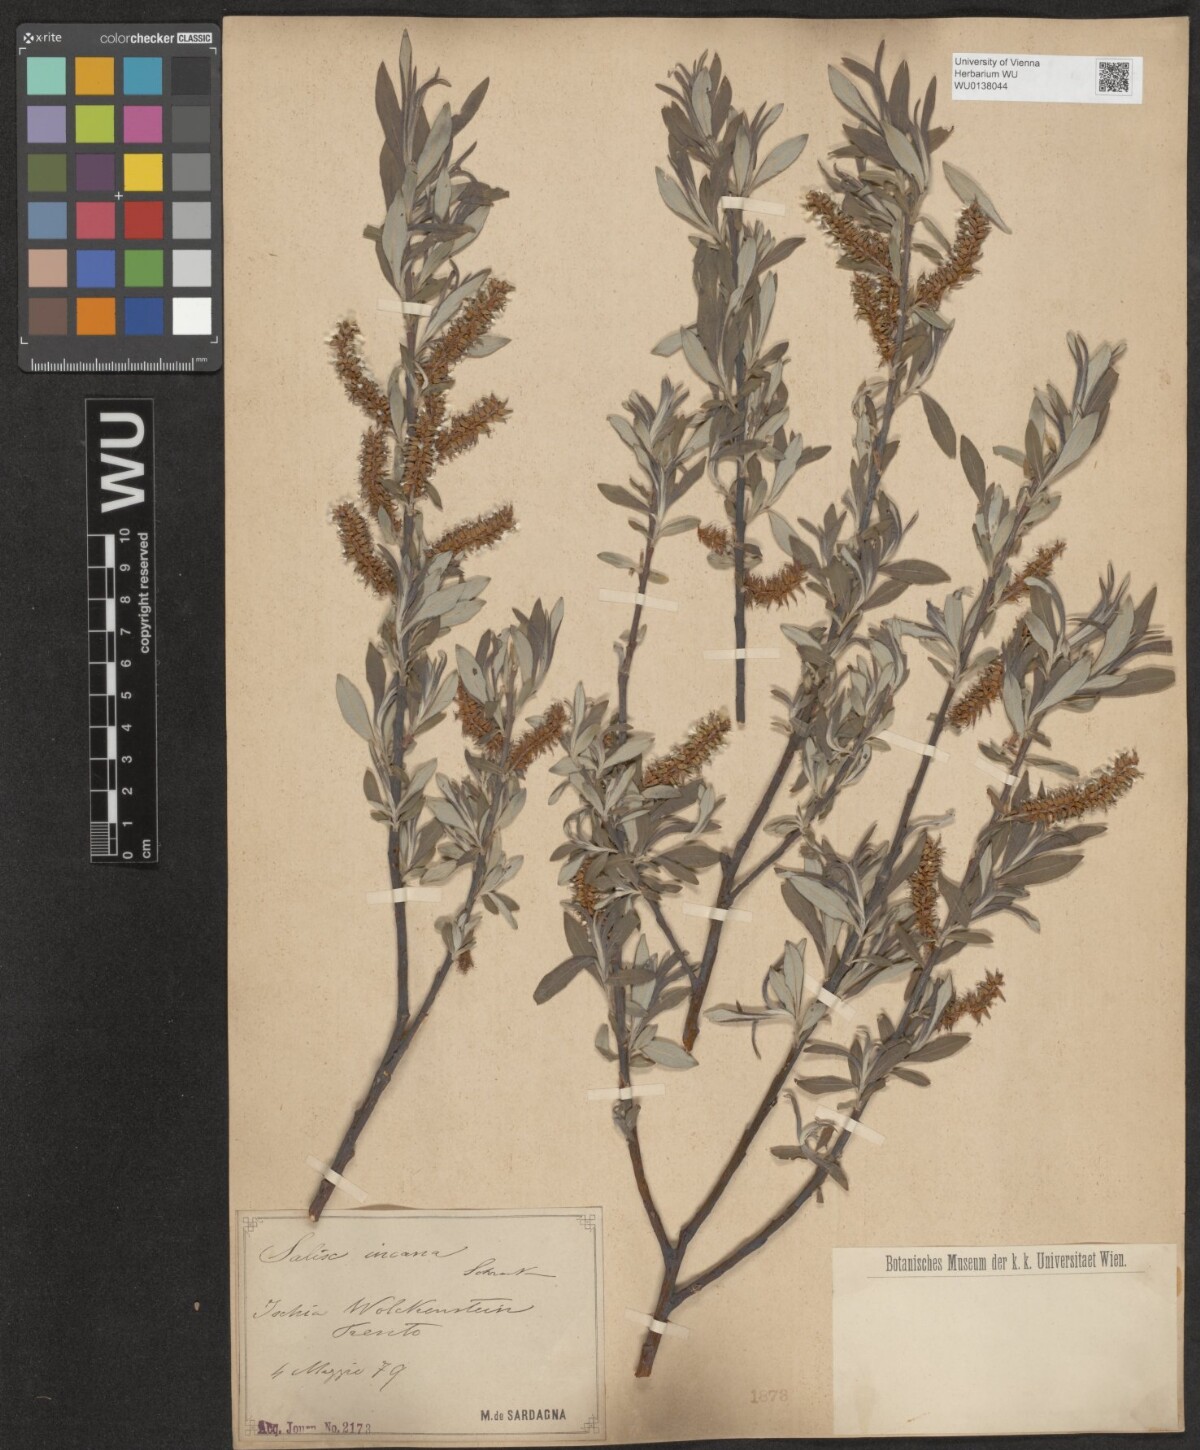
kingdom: Plantae
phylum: Tracheophyta
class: Magnoliopsida
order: Malpighiales
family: Salicaceae
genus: Salix
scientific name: Salix eleagnos
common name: Elaeagnus willow
